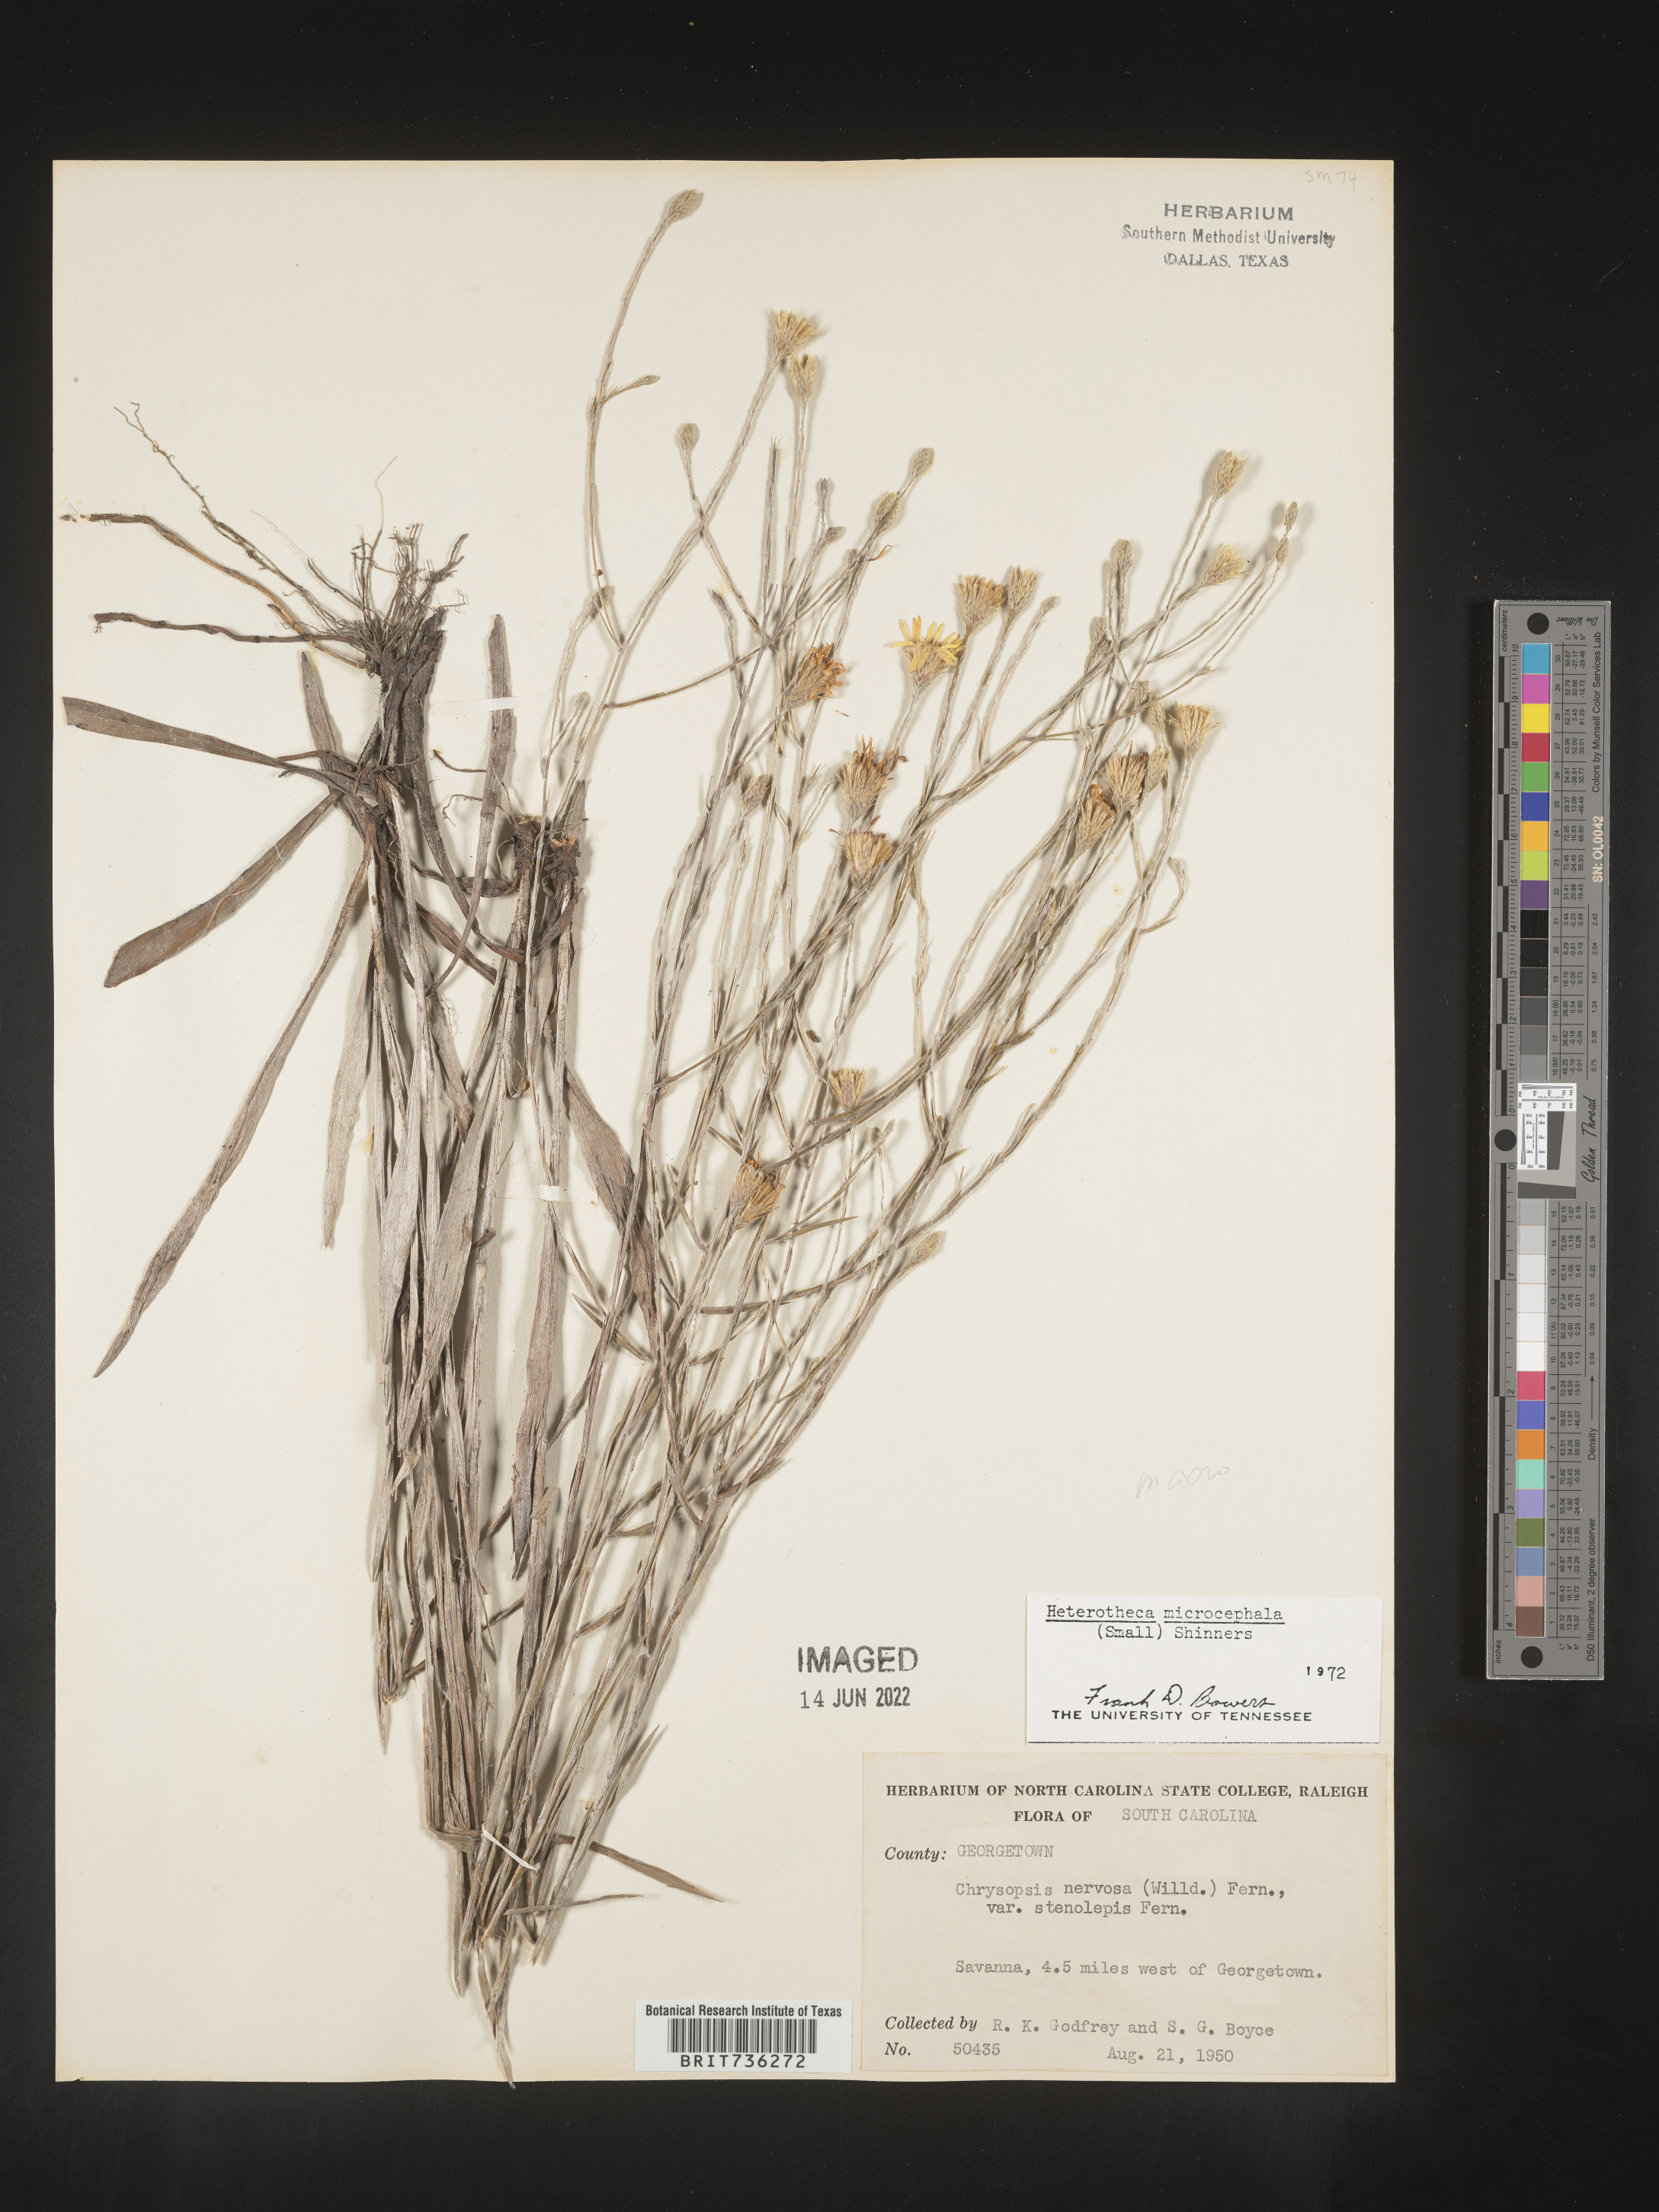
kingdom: Plantae
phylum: Tracheophyta
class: Magnoliopsida
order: Asterales
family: Asteraceae
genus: Pityopsis
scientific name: Pityopsis graminifolia
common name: Grass-leaf golden-aster
